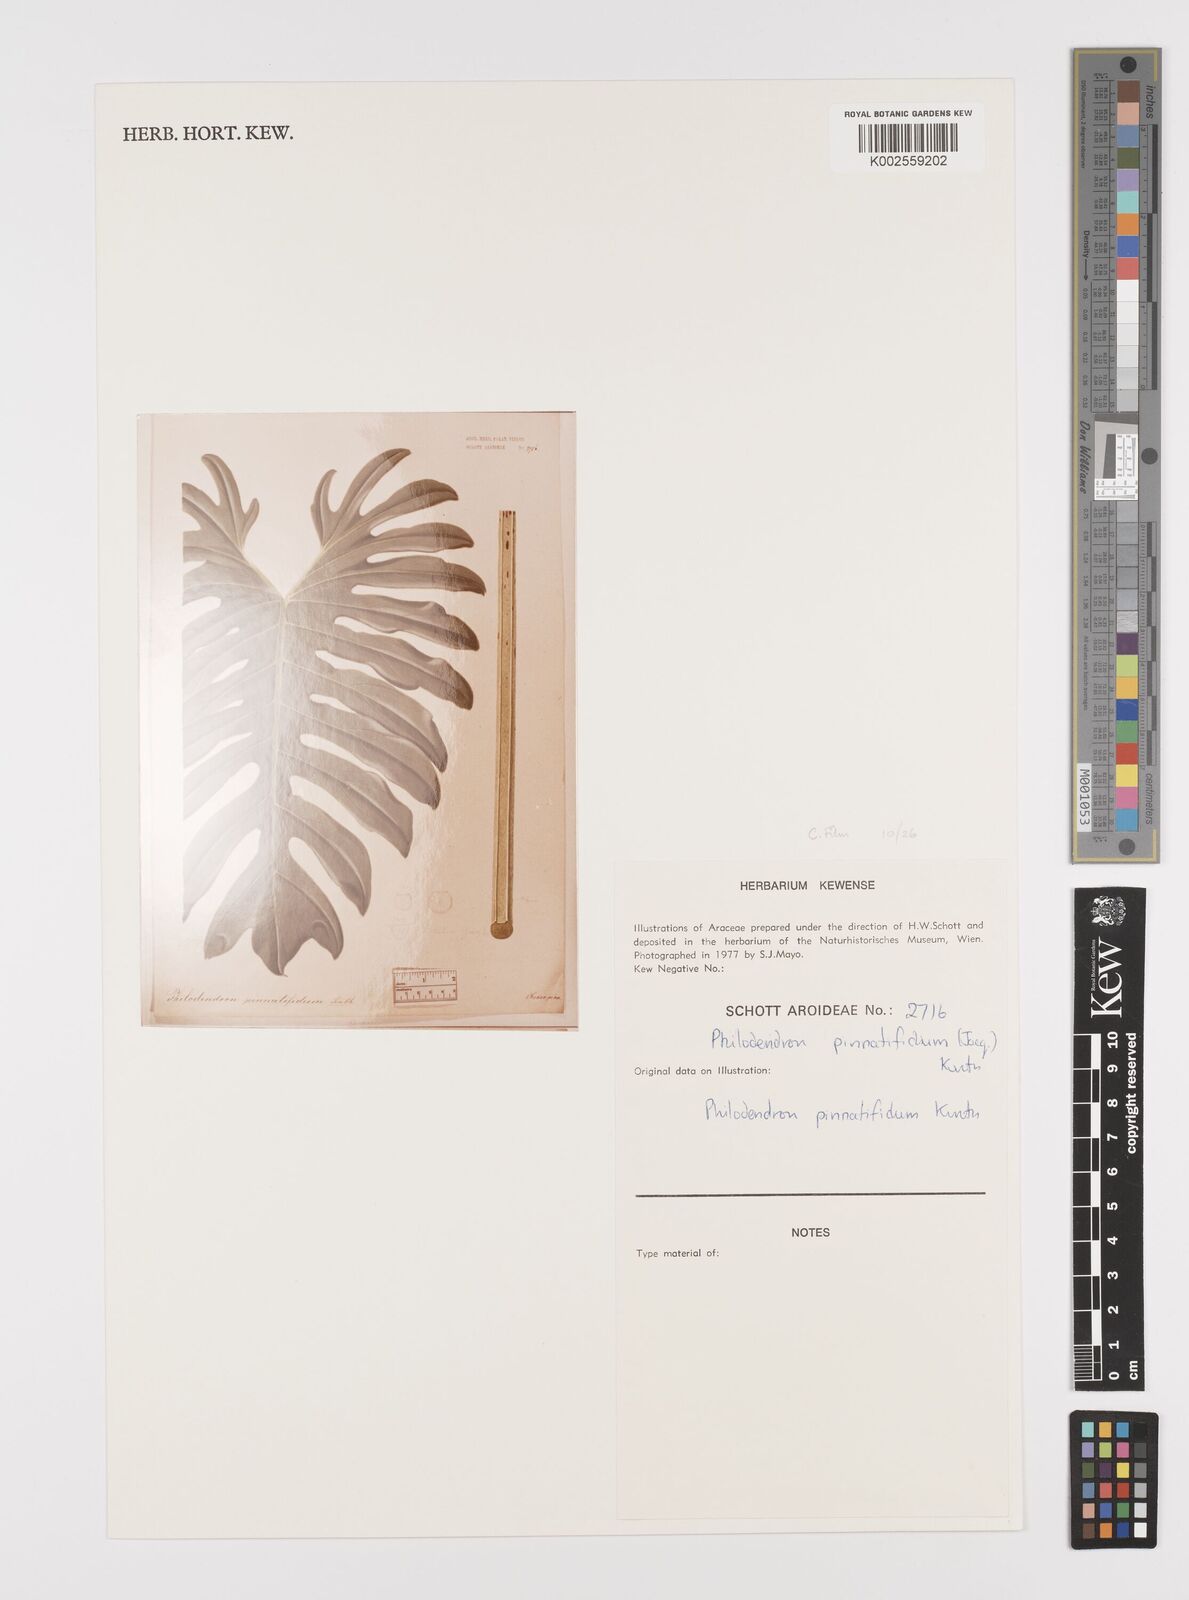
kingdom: Plantae
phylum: Tracheophyta
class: Liliopsida
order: Alismatales
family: Araceae
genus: Philodendron
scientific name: Philodendron pinnatifidum
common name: Comb-leaf philodendron
